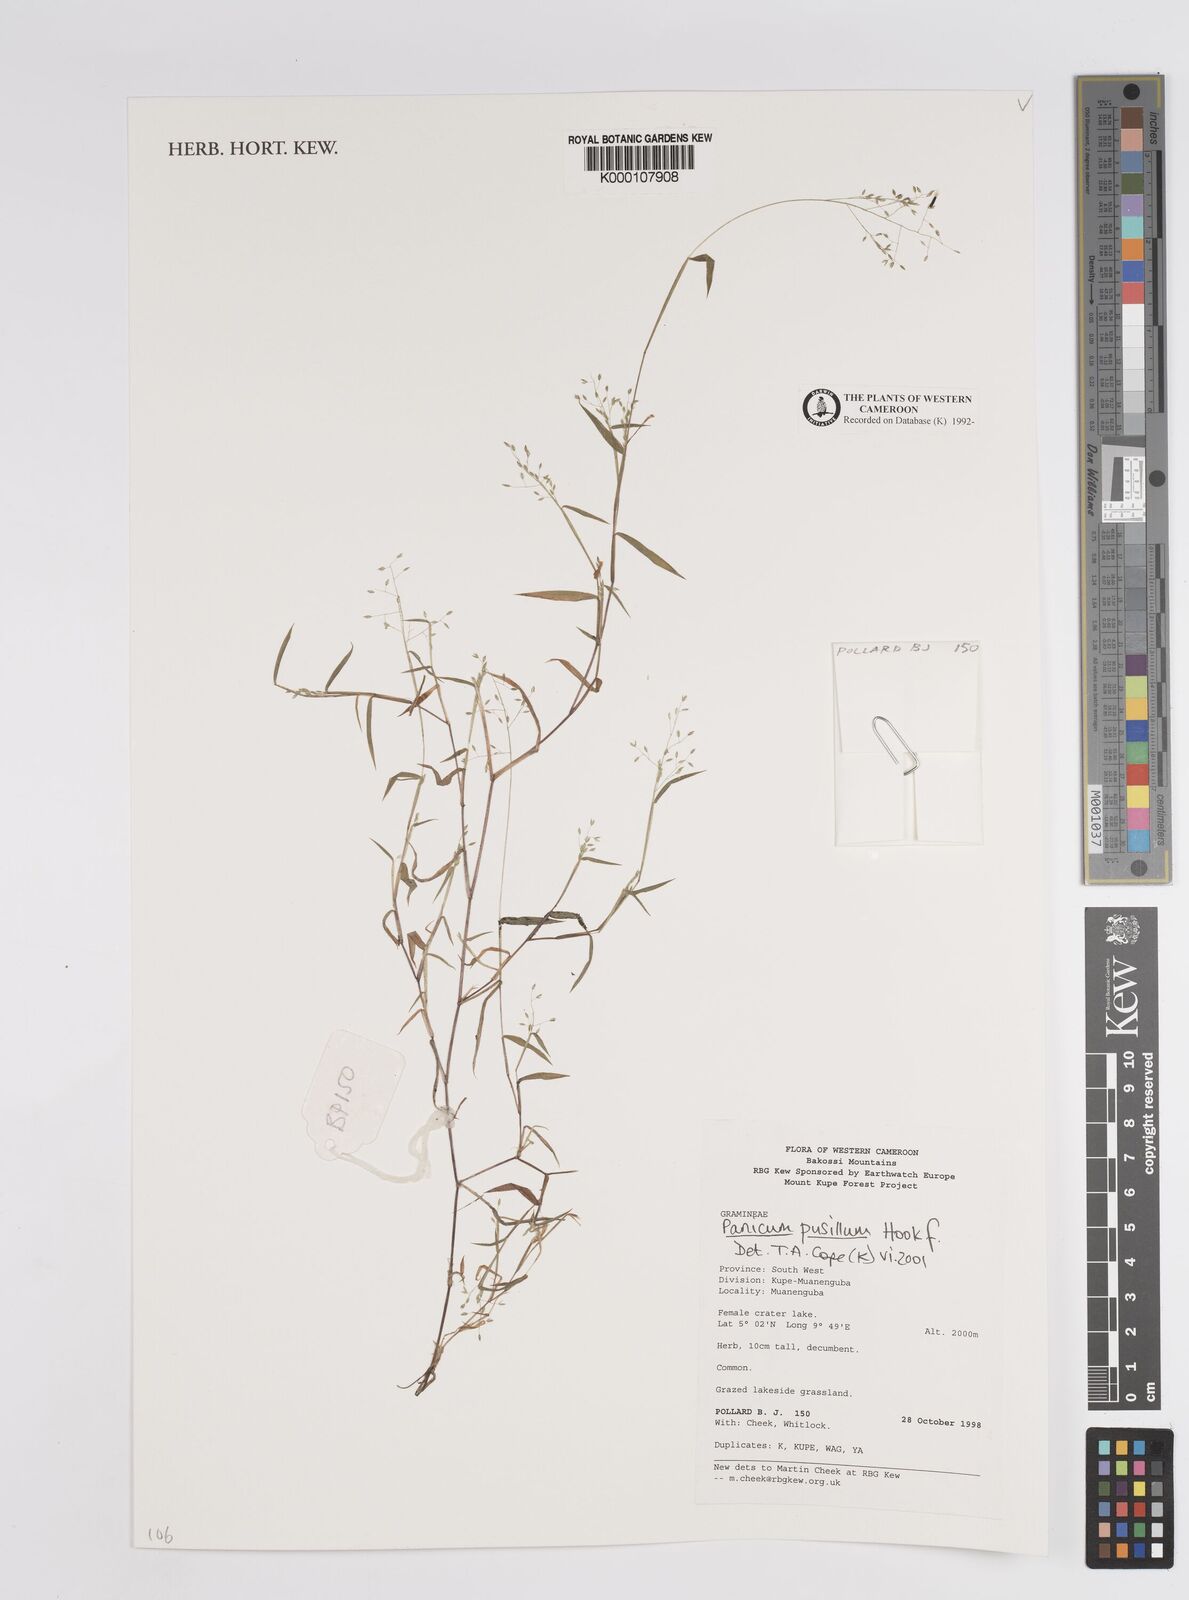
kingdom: Plantae
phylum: Tracheophyta
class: Liliopsida
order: Poales
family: Poaceae
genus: Panicum
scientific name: Panicum pusillum
